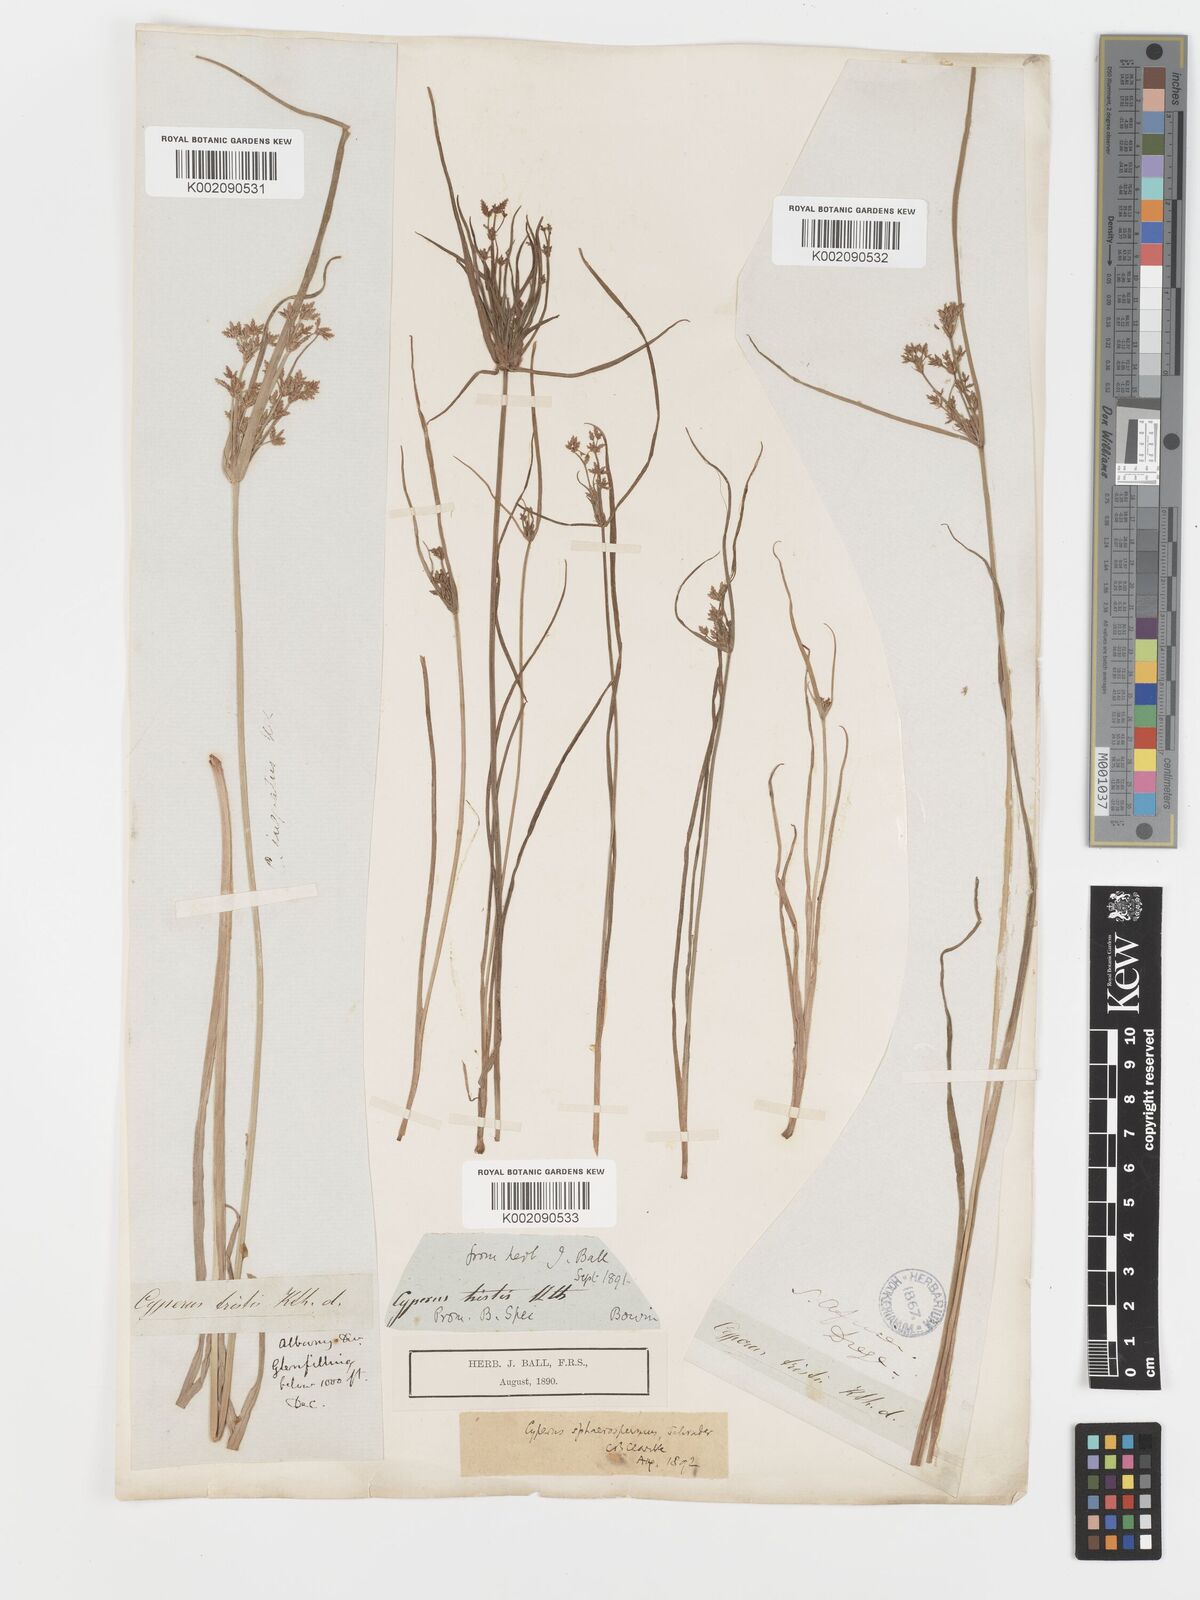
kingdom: Plantae
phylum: Tracheophyta
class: Liliopsida
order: Poales
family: Cyperaceae
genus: Cyperus
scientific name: Cyperus sphaerospermus
